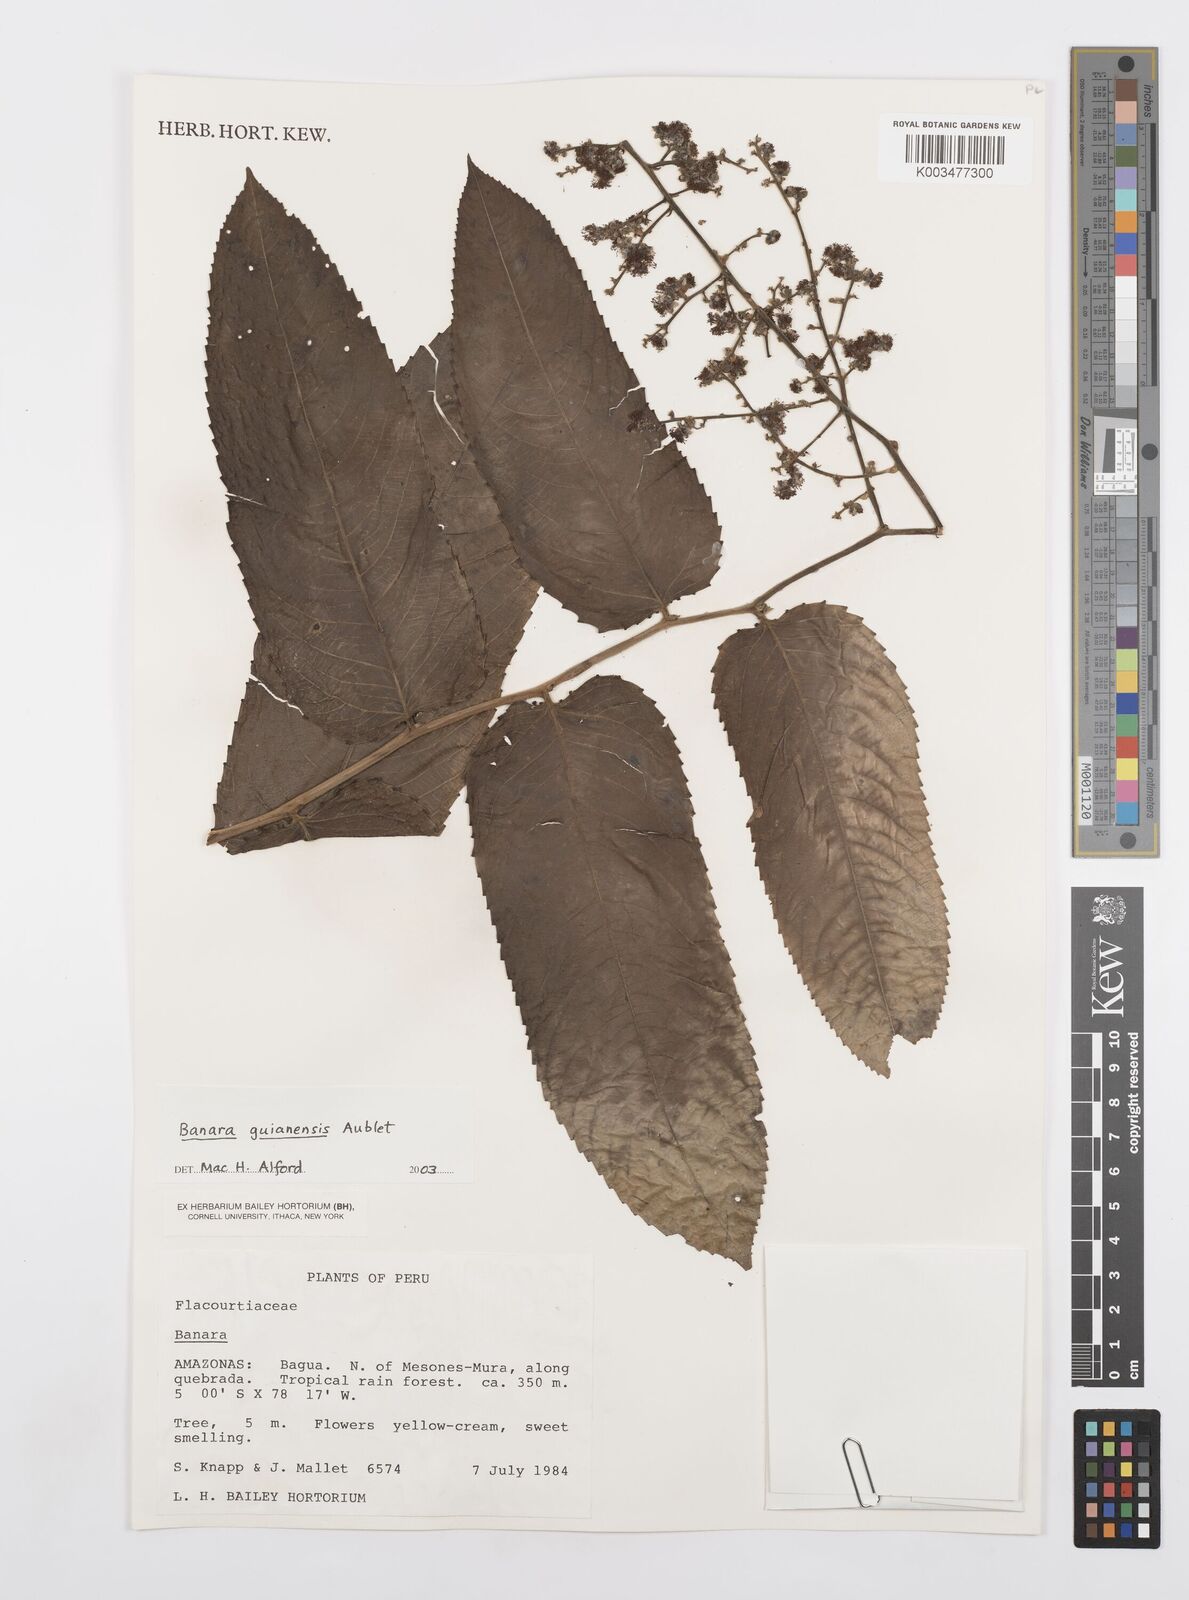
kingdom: Plantae
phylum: Tracheophyta
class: Magnoliopsida
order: Malpighiales
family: Salicaceae
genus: Banara
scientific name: Banara guianensis
